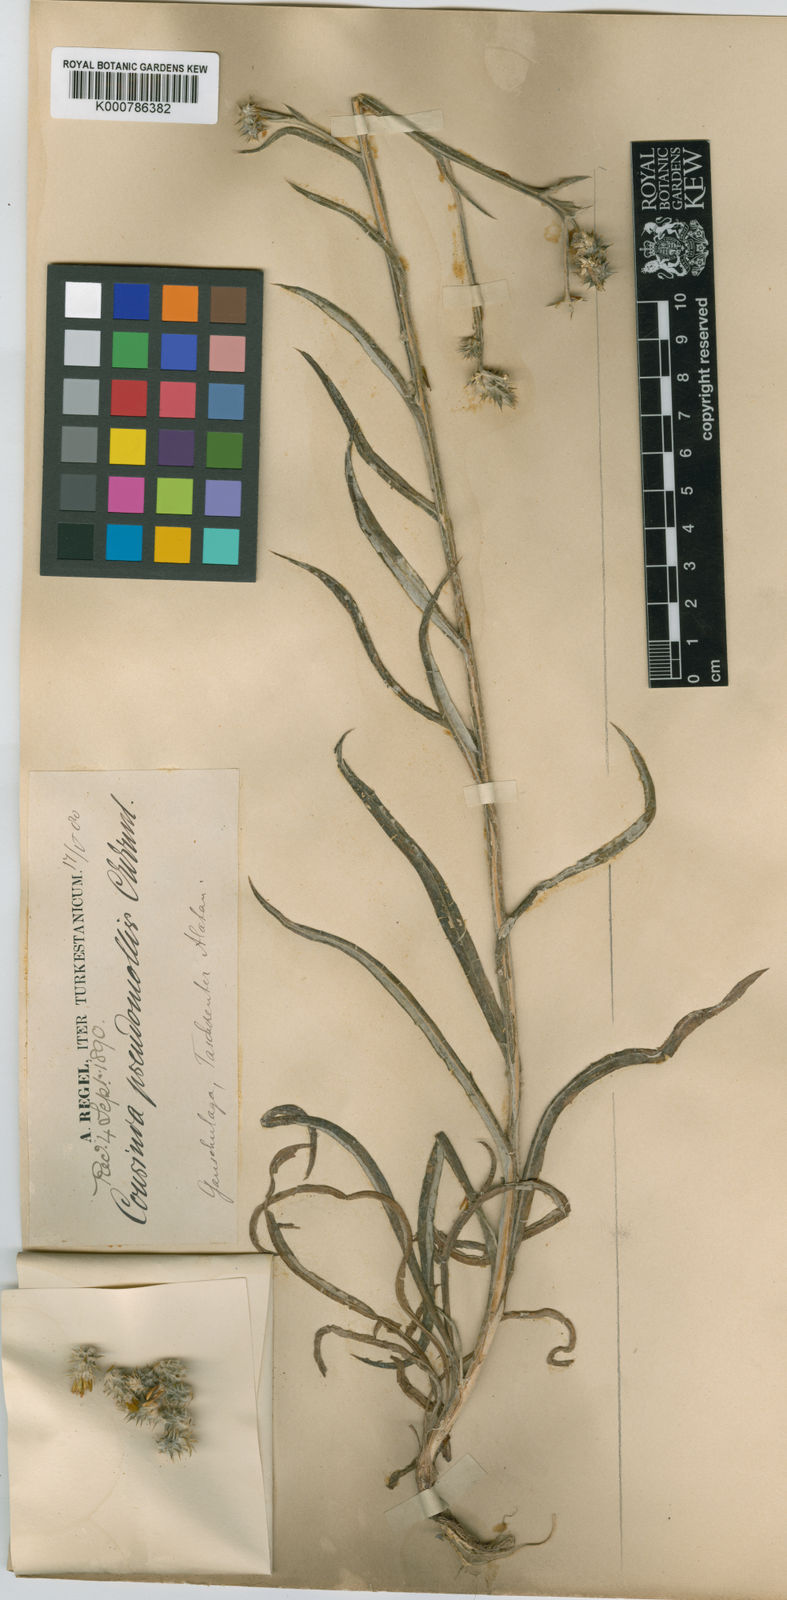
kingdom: Plantae
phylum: Tracheophyta
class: Magnoliopsida
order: Asterales
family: Asteraceae
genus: Cousinia
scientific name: Cousinia pseudomollis
